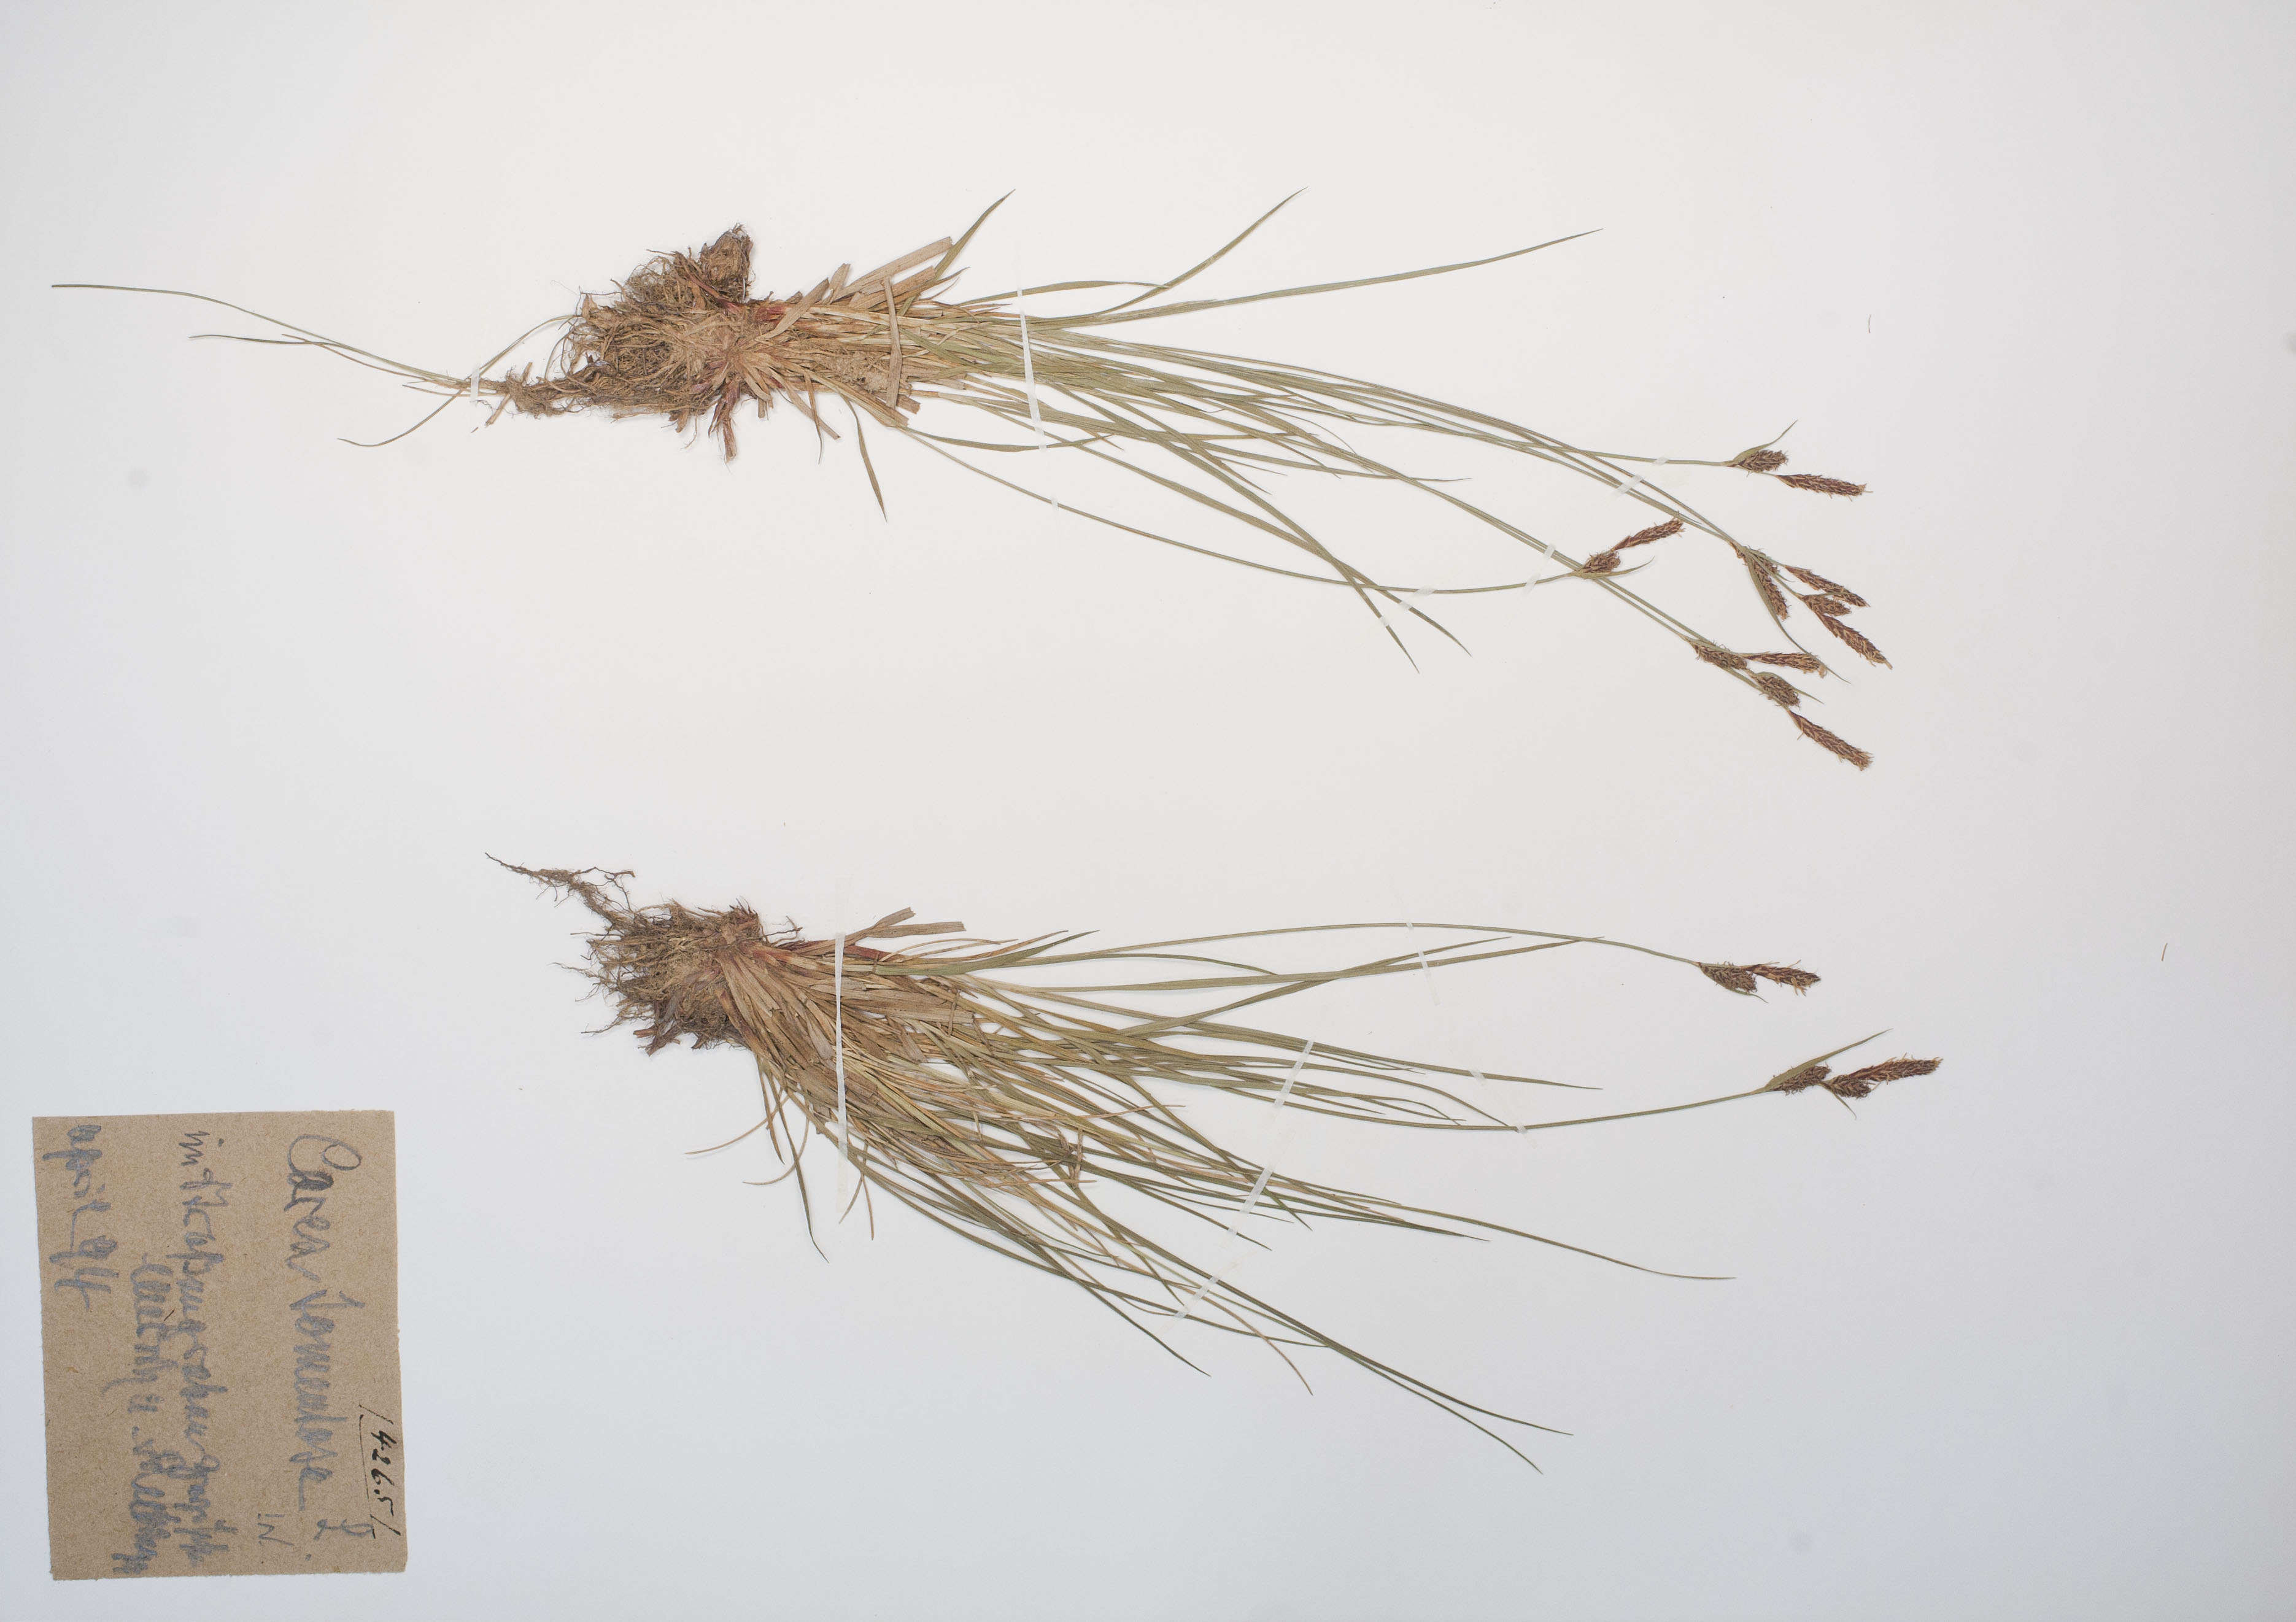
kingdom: Plantae
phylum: Tracheophyta
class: Liliopsida
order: Poales
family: Cyperaceae
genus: Carex
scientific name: Carex tomentosa
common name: Downy-fruited sedge
